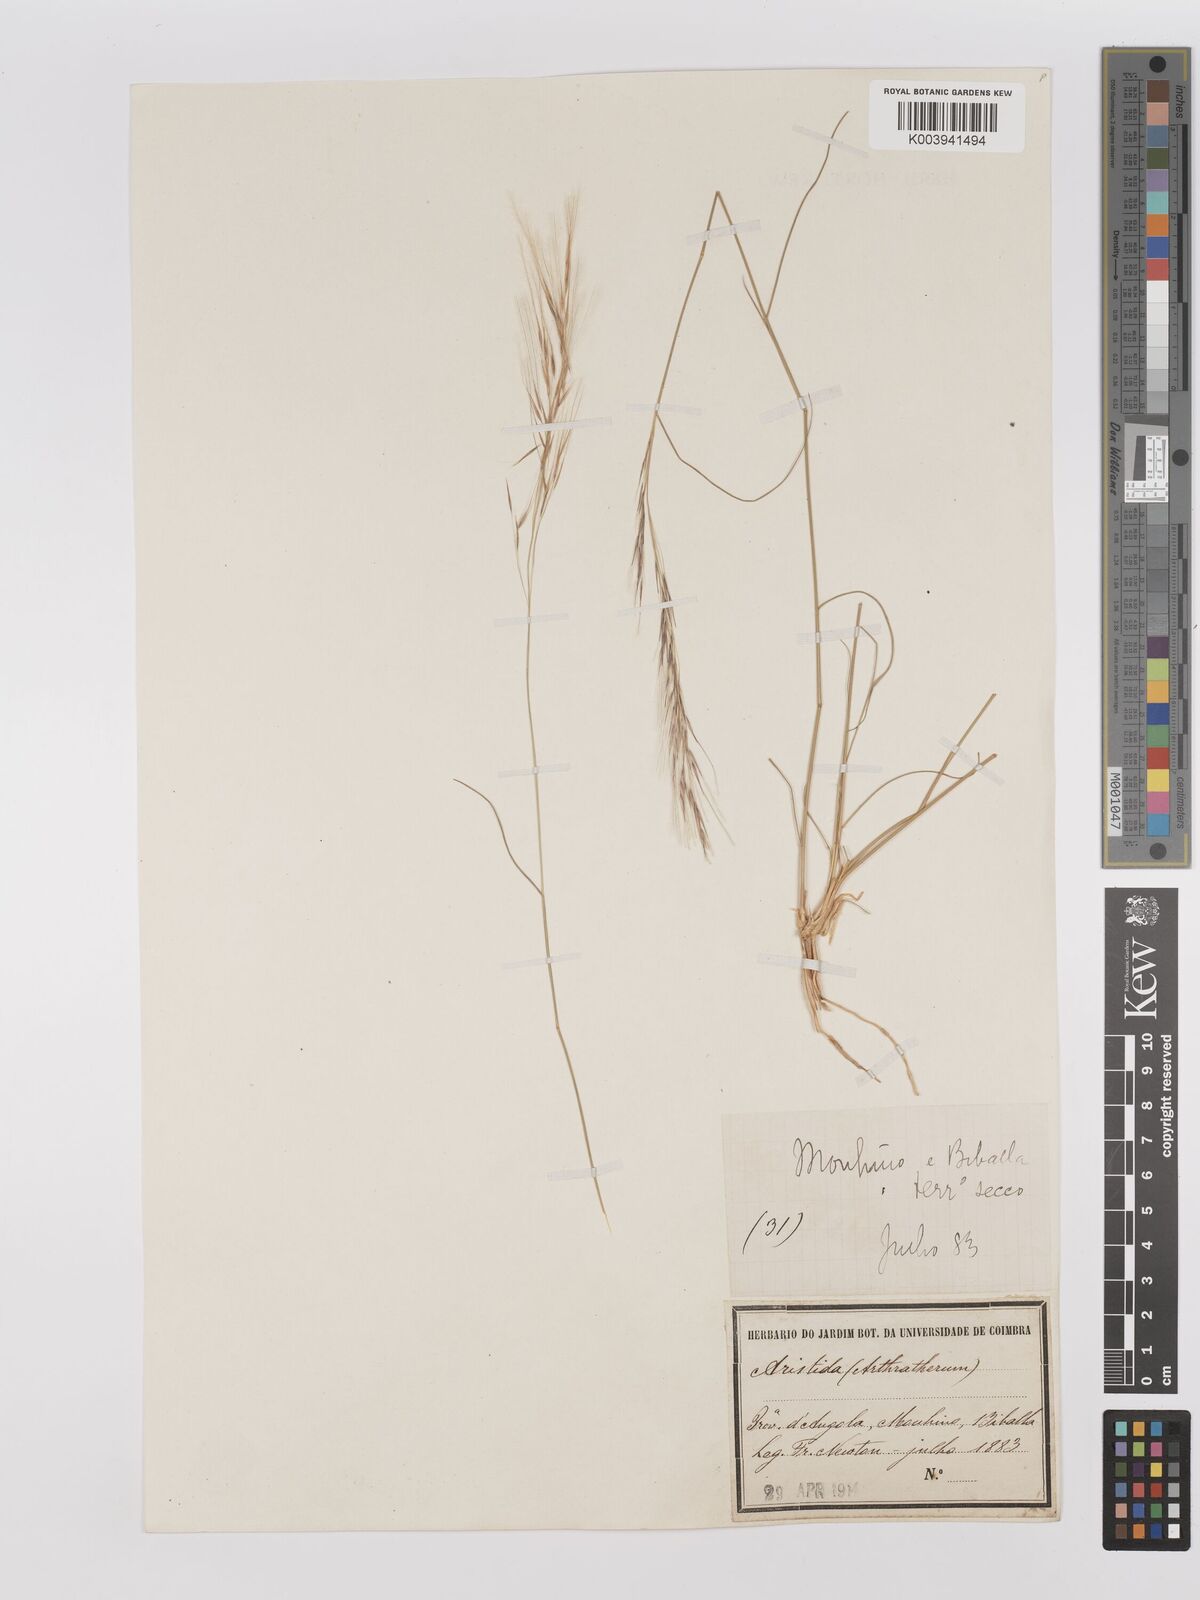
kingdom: Plantae
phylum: Tracheophyta
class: Liliopsida
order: Poales
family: Poaceae
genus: Stipagrostis
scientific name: Stipagrostis uniplumis
